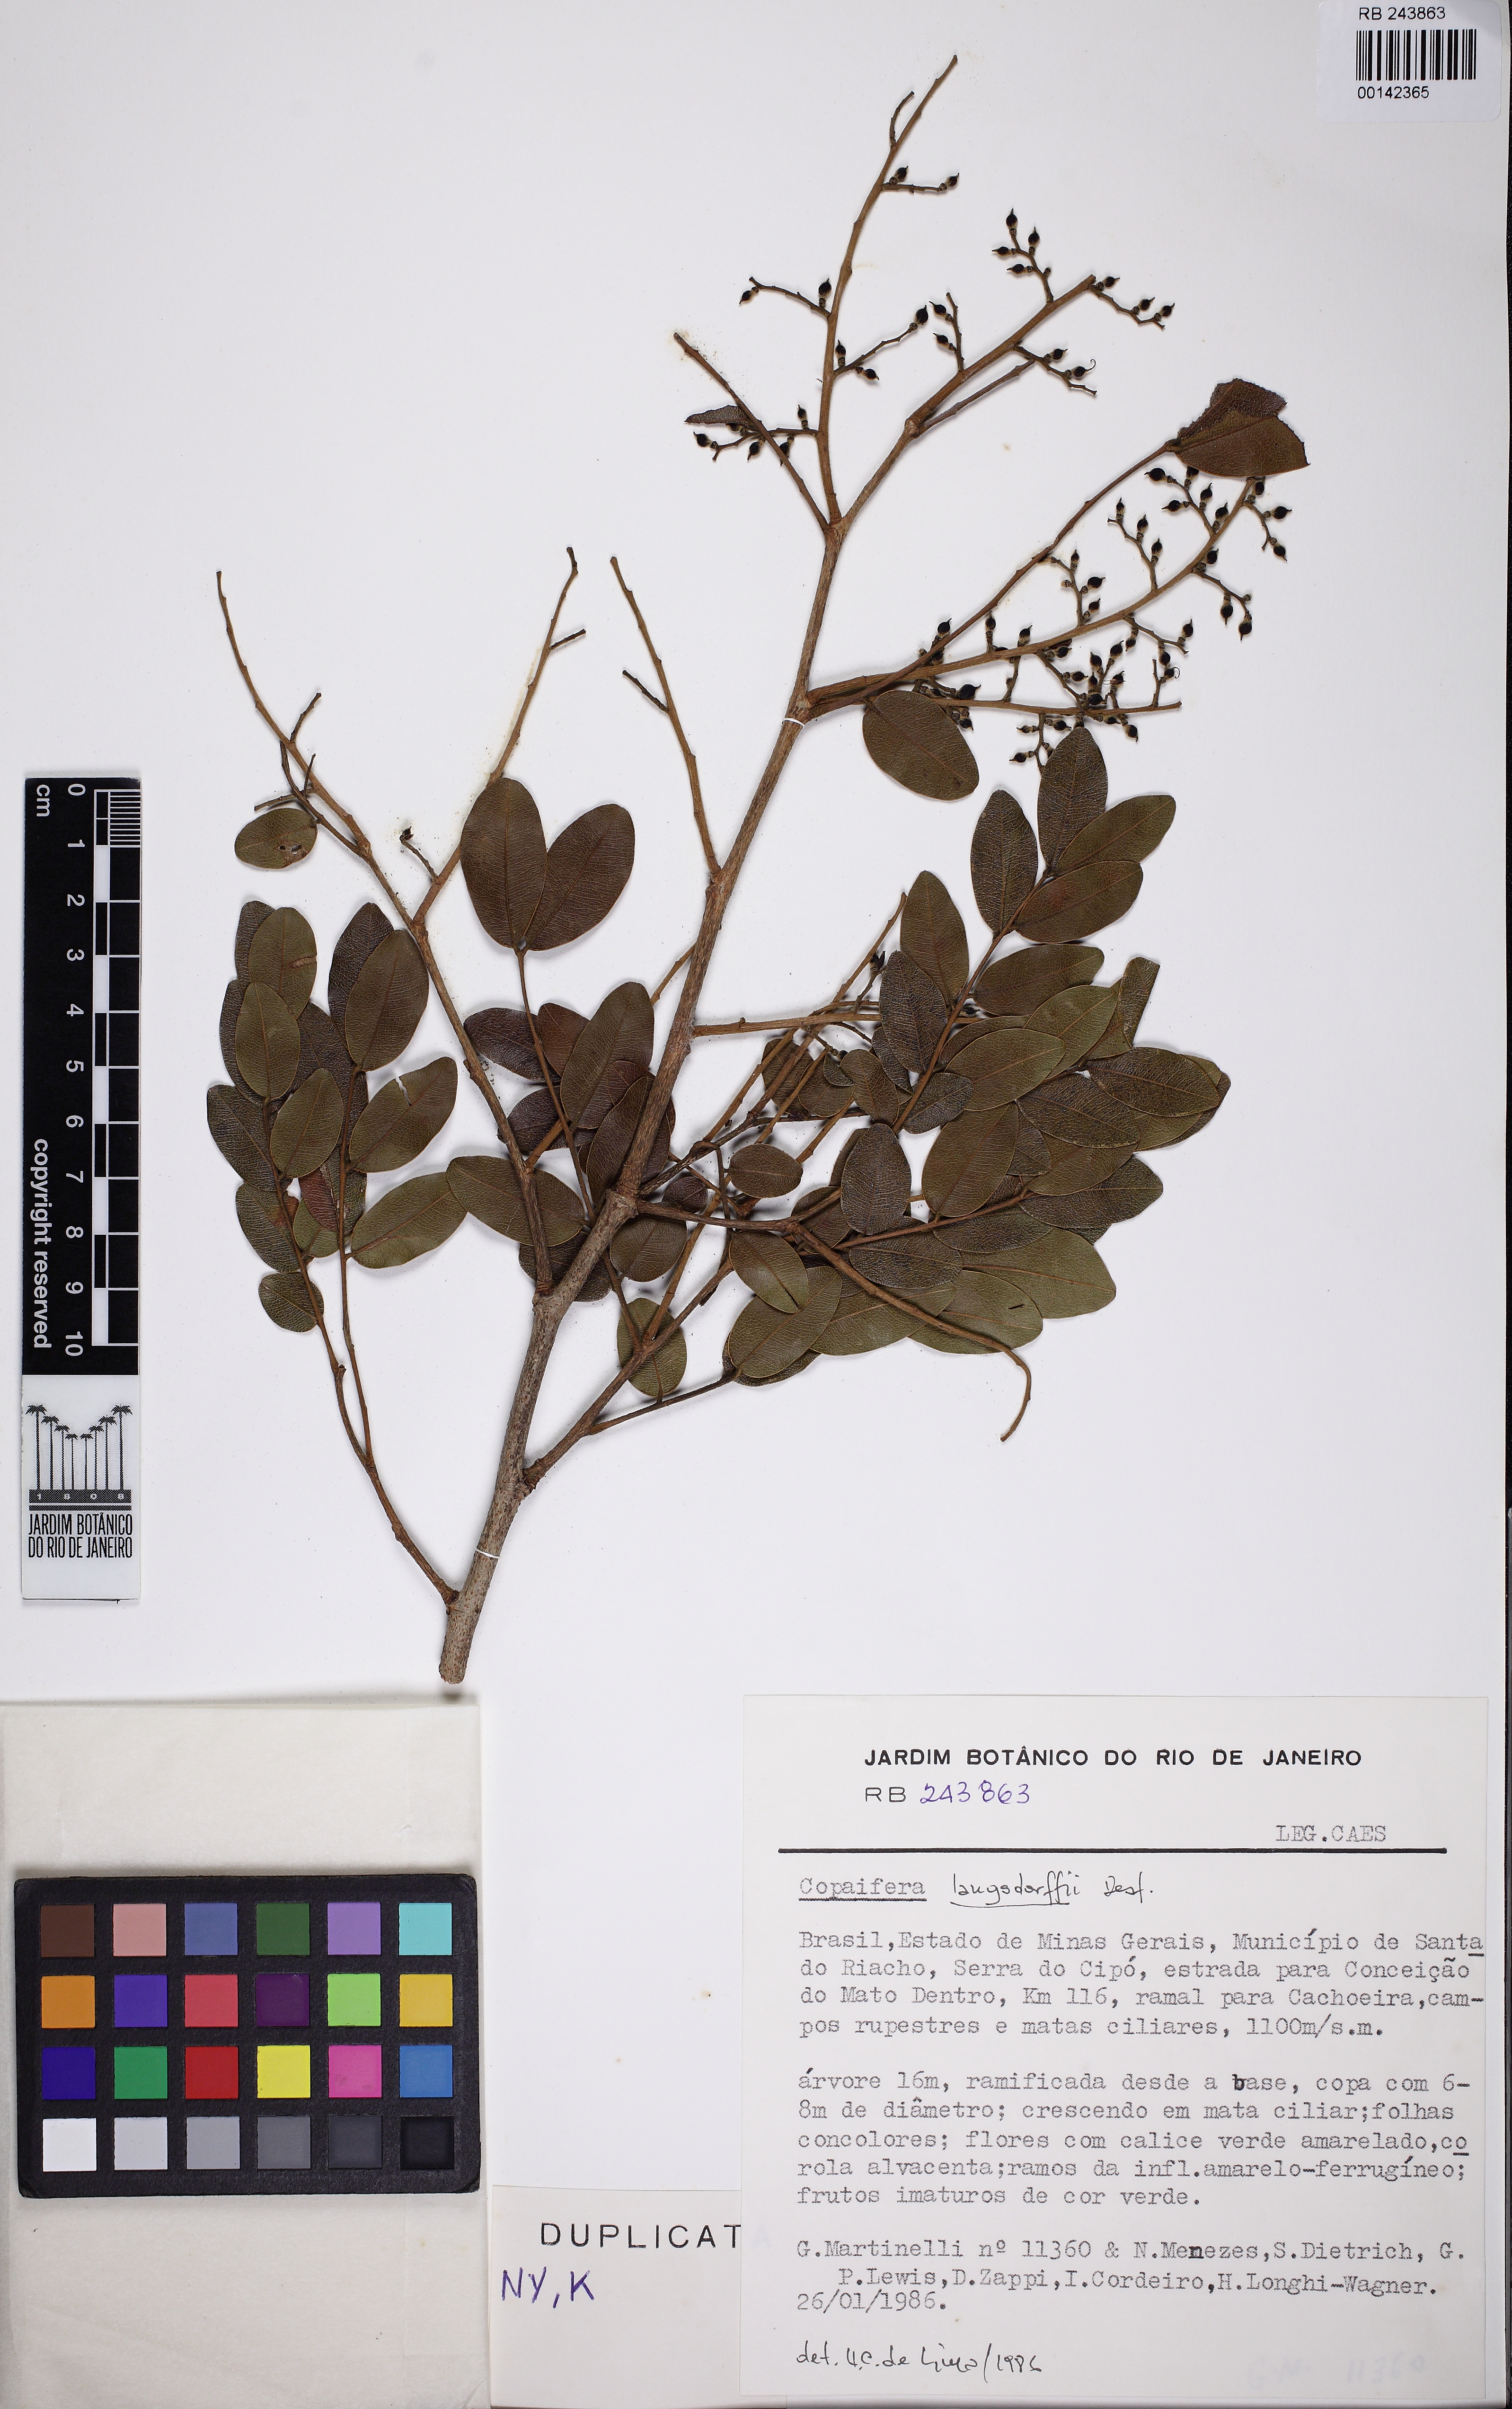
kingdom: Plantae
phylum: Tracheophyta
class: Magnoliopsida
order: Fabales
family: Fabaceae
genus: Copaifera
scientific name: Copaifera langsdorffii
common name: Brazilian diesel tree
